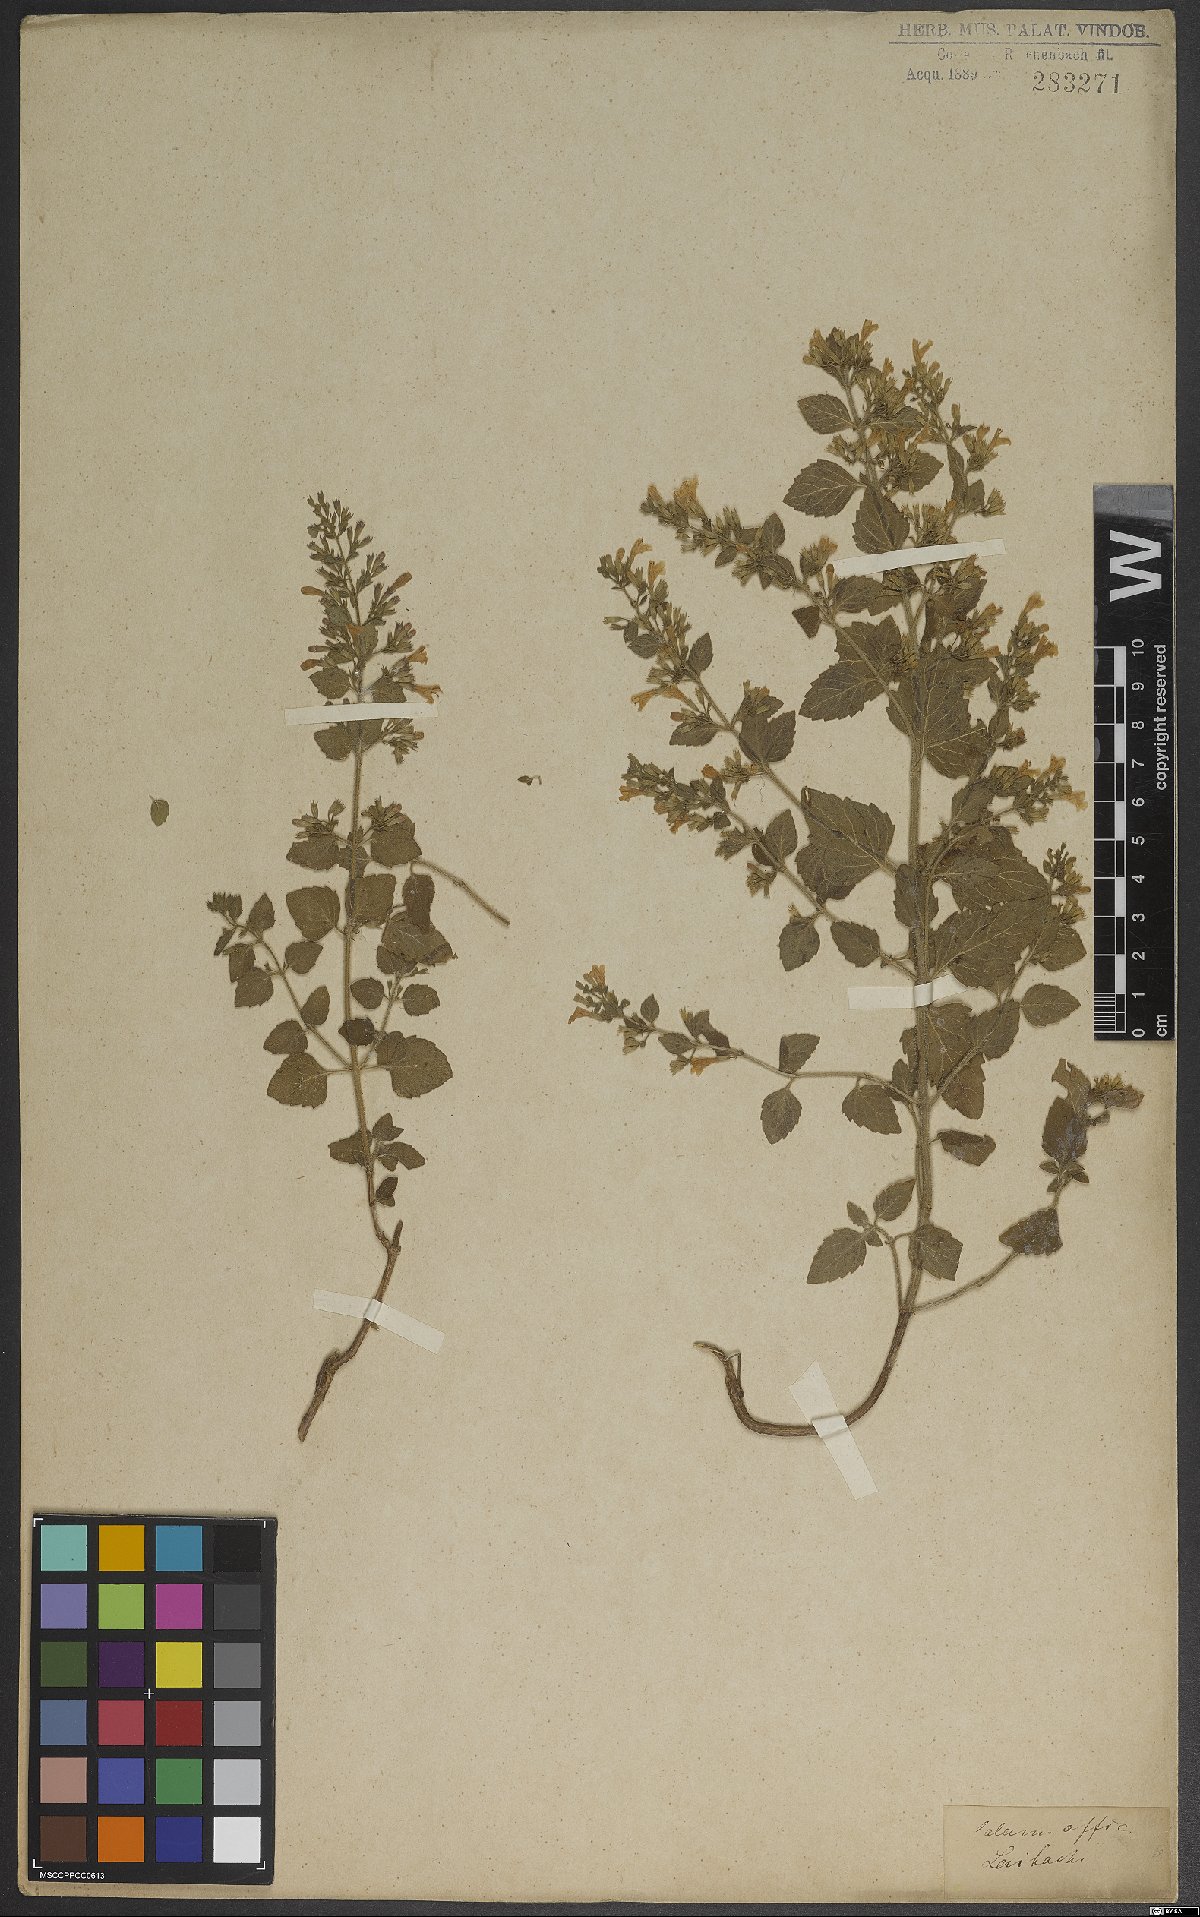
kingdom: Plantae
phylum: Tracheophyta
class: Magnoliopsida
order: Lamiales
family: Lamiaceae
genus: Clinopodium
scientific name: Clinopodium nepeta
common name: Lesser calamint
